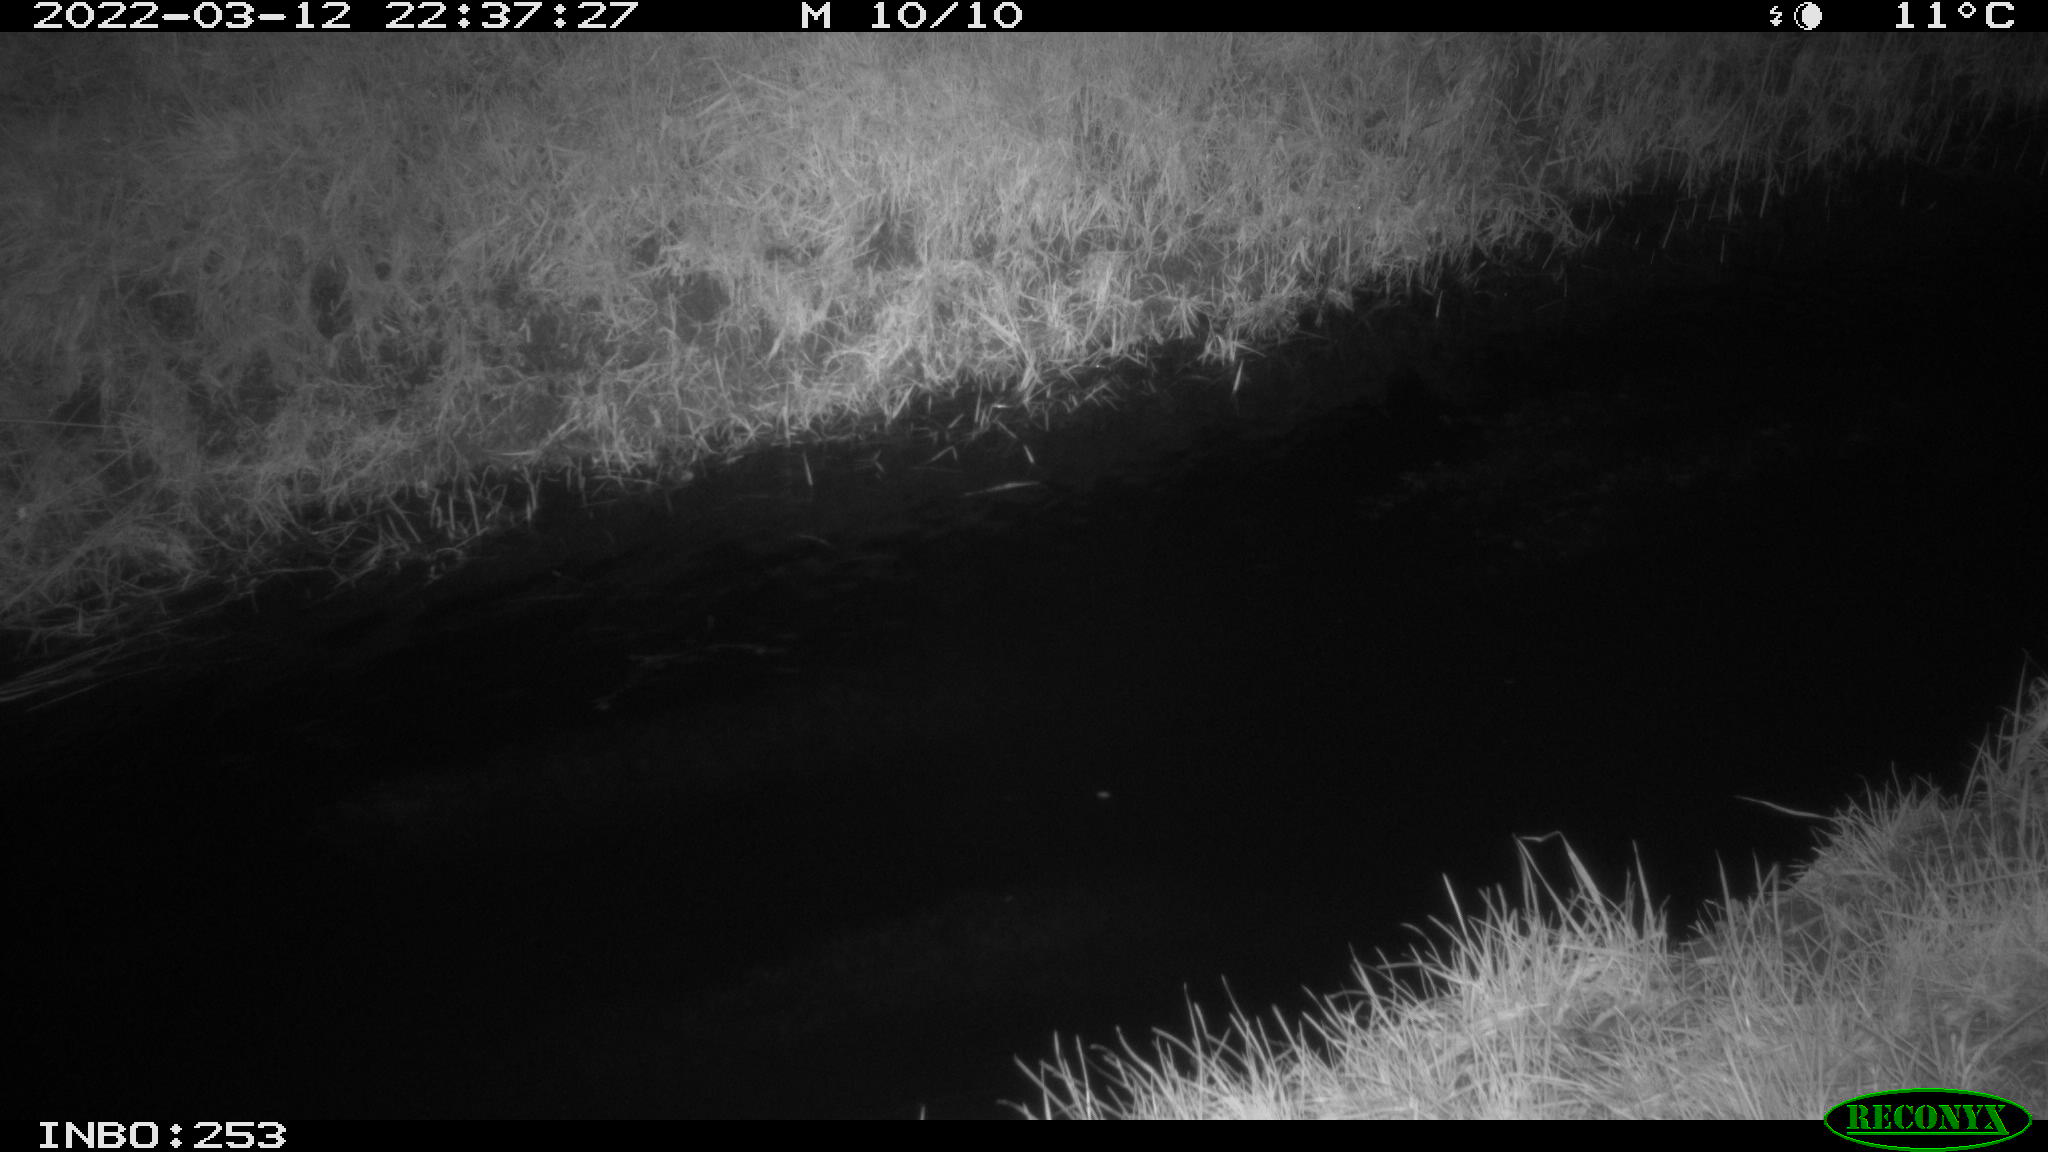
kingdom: Animalia
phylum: Chordata
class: Aves
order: Anseriformes
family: Anatidae
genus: Anas
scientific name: Anas platyrhynchos
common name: Mallard
